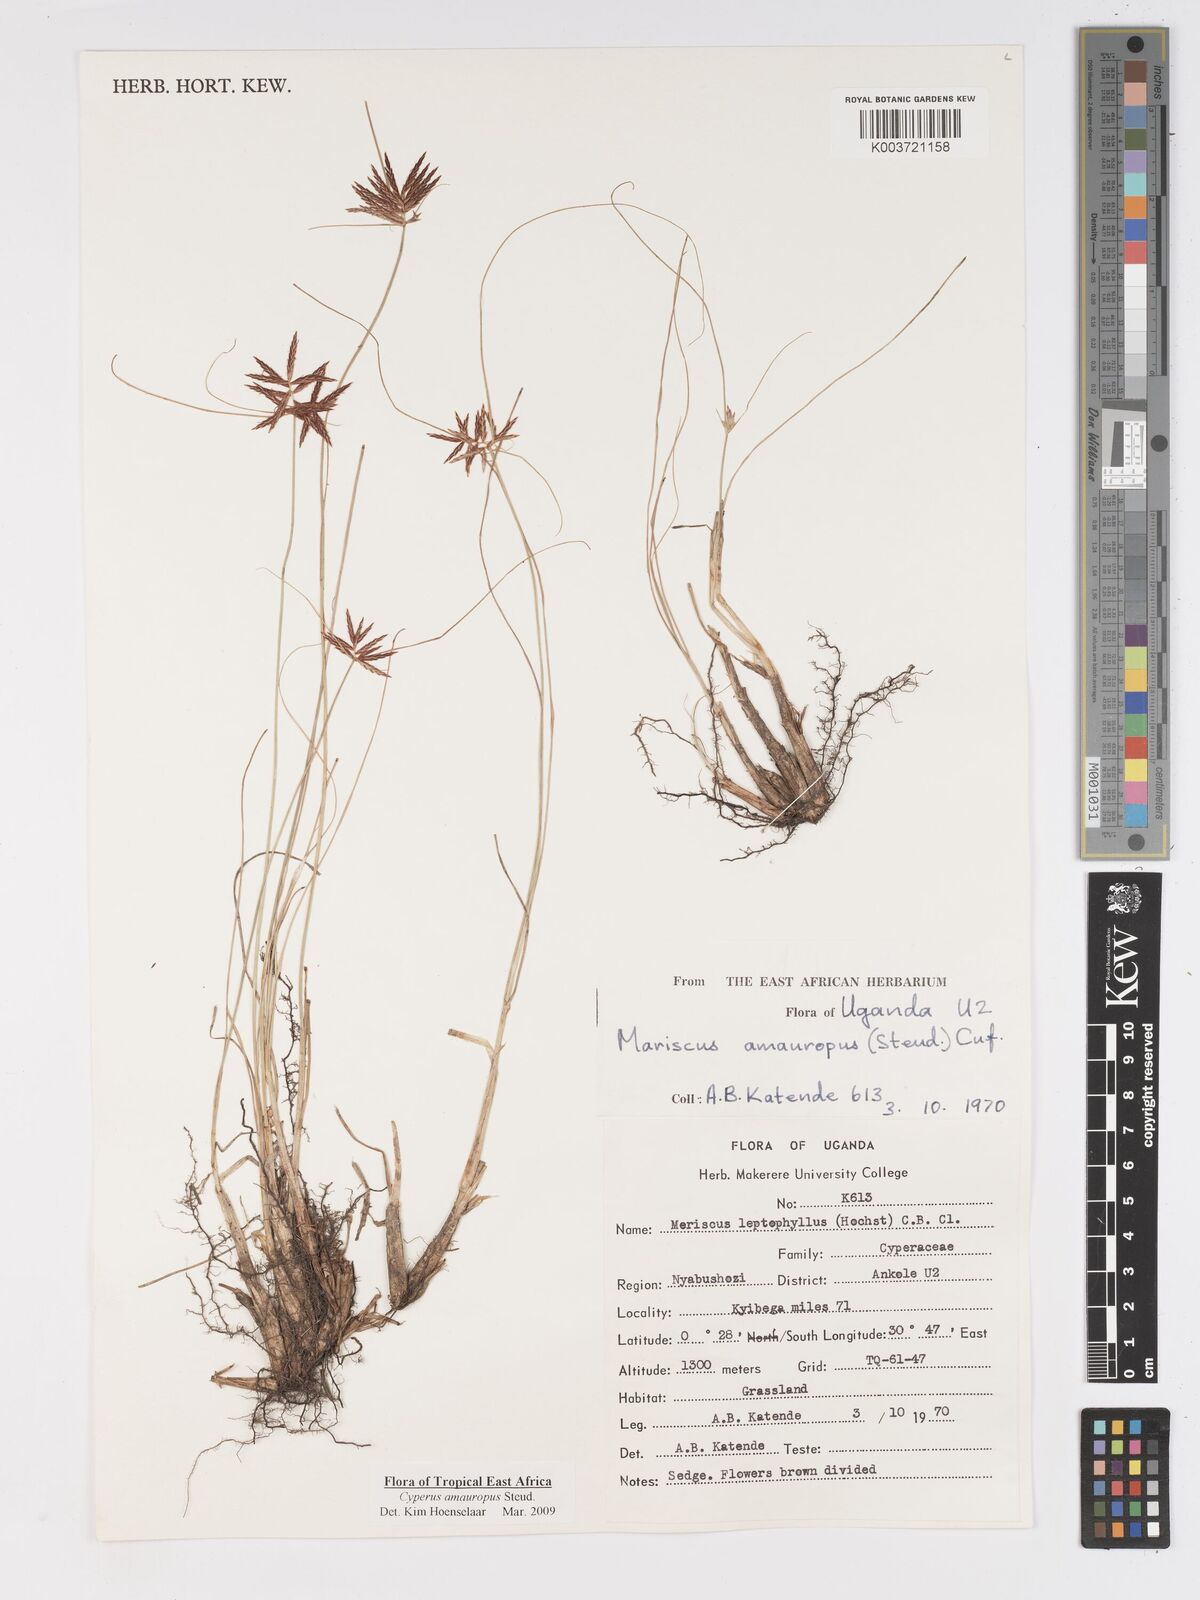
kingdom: Plantae
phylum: Tracheophyta
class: Liliopsida
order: Poales
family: Cyperaceae
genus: Cyperus
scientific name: Cyperus amauropus
